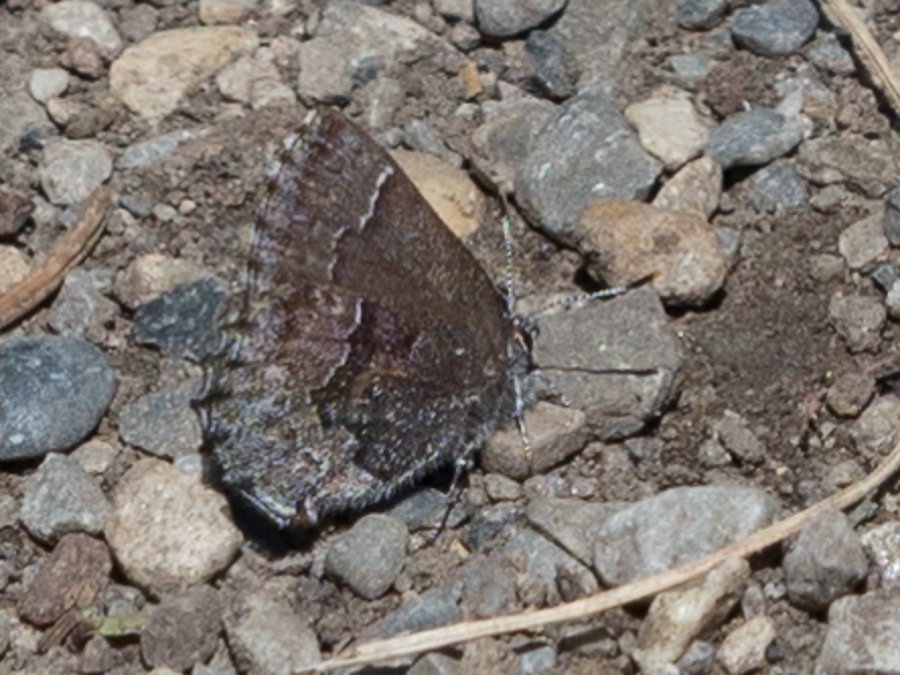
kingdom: Animalia
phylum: Arthropoda
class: Insecta
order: Lepidoptera
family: Lycaenidae
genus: Callophrys
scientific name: Callophrys polios
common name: Hoary Elfin
